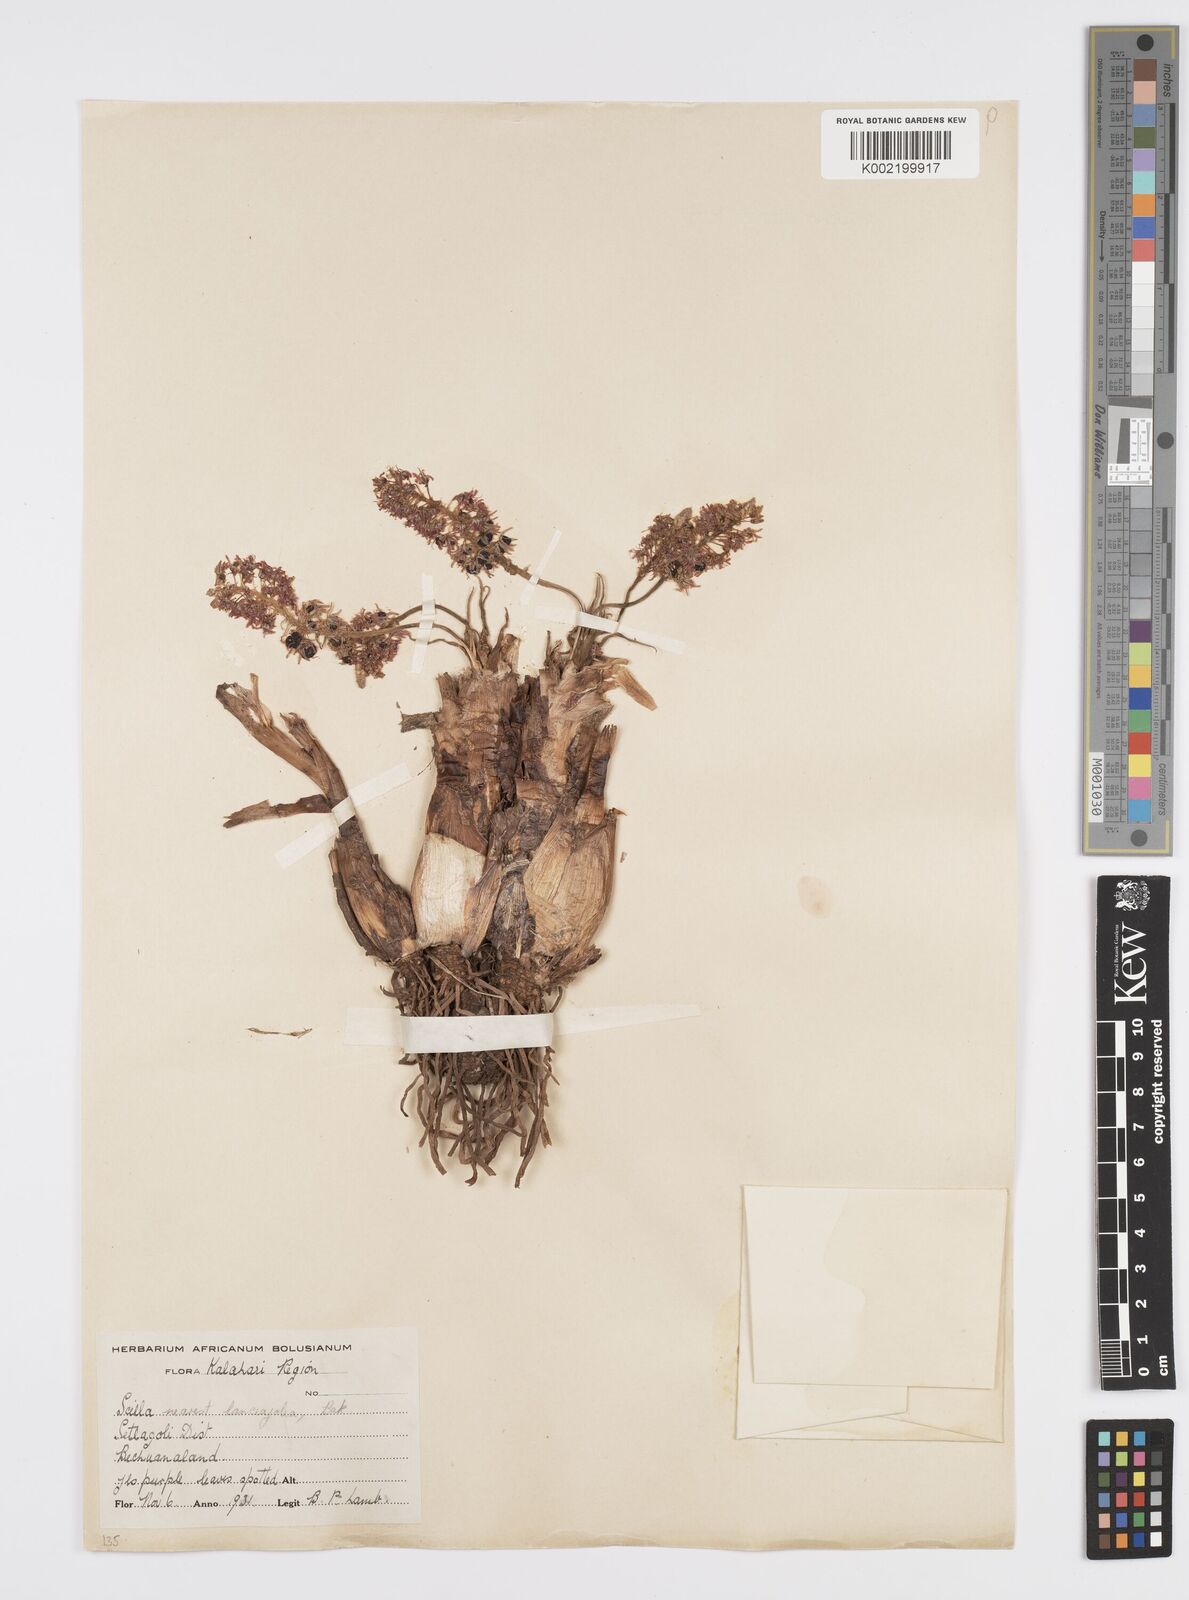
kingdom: Plantae
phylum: Tracheophyta
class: Liliopsida
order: Asparagales
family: Asparagaceae
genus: Ledebouria
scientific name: Ledebouria revoluta
